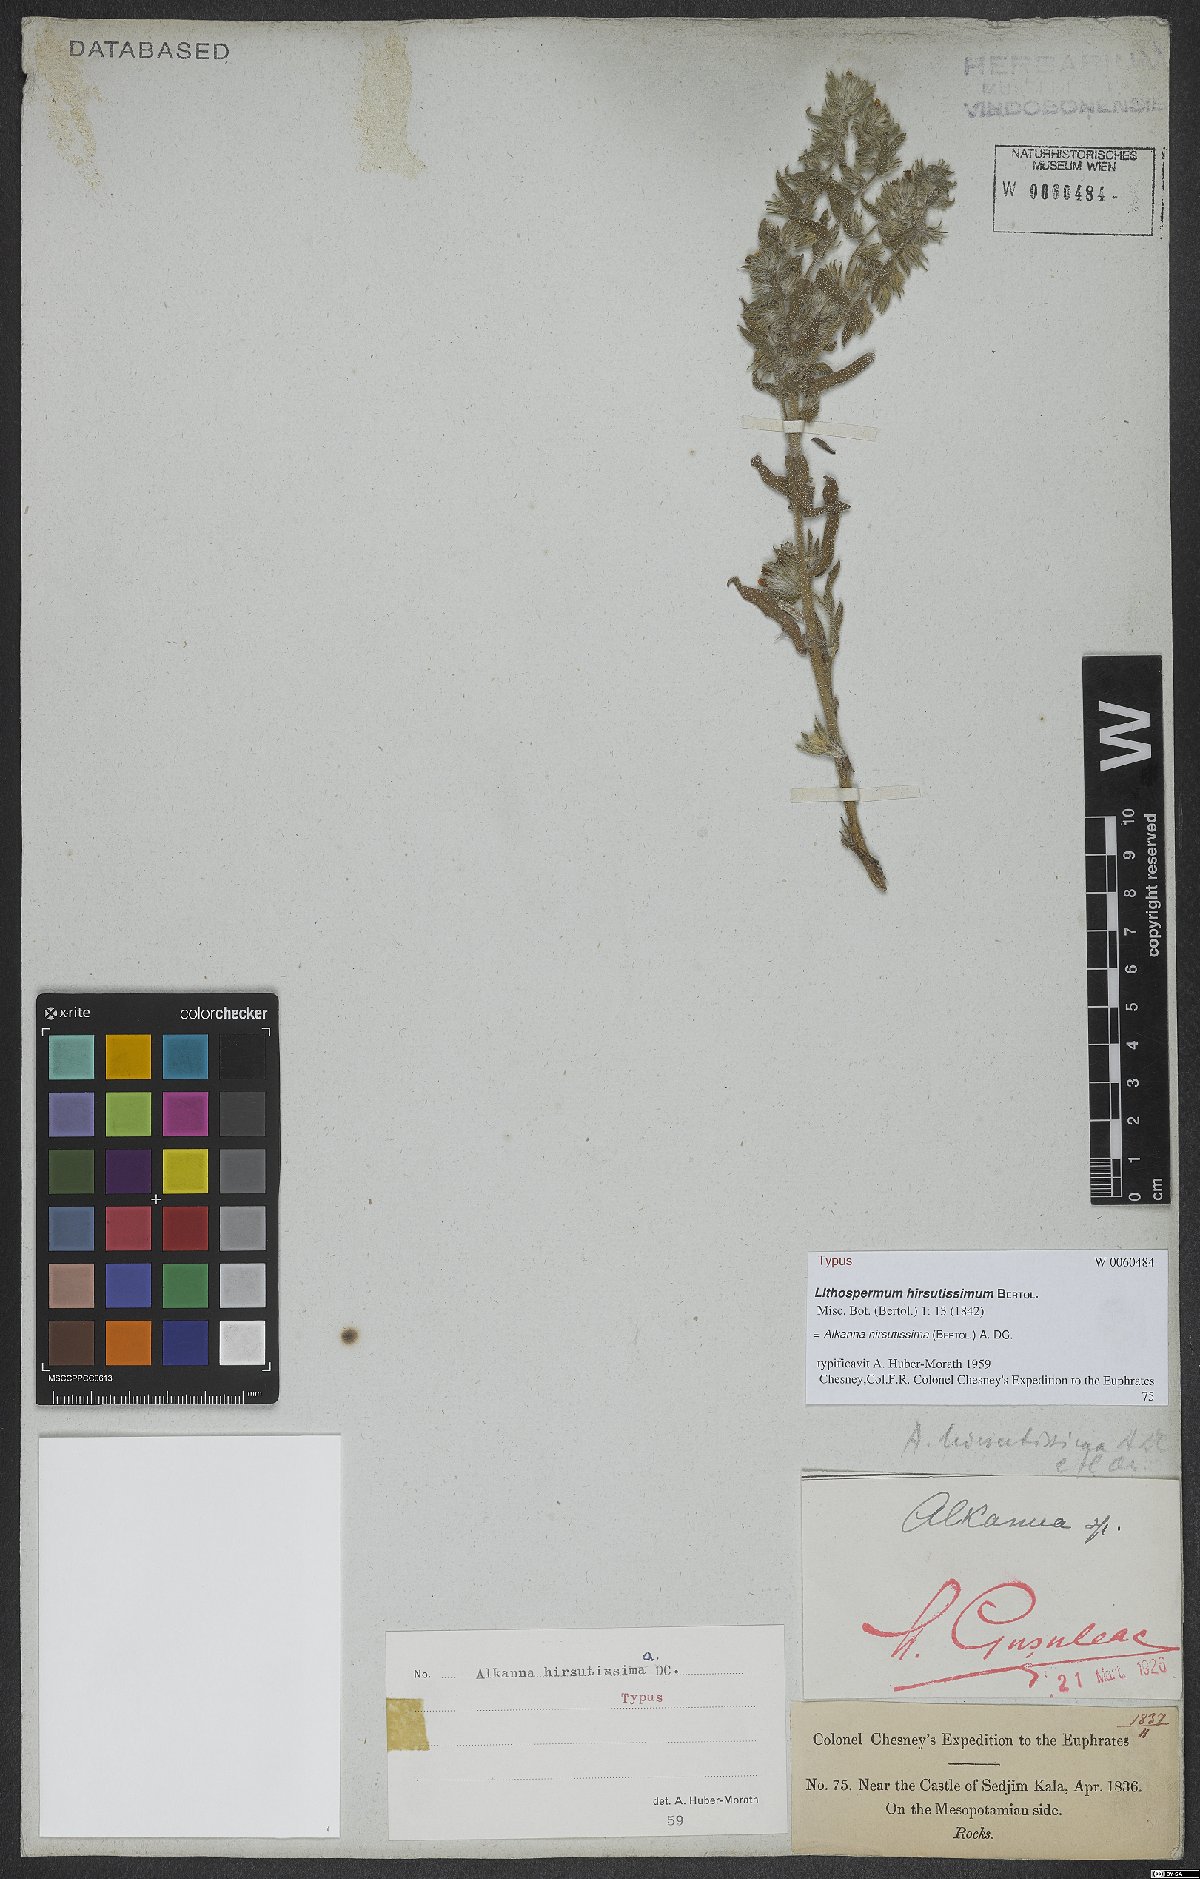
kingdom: Plantae
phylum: Tracheophyta
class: Magnoliopsida
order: Boraginales
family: Boraginaceae
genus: Alkanna
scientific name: Alkanna hirsutissima
